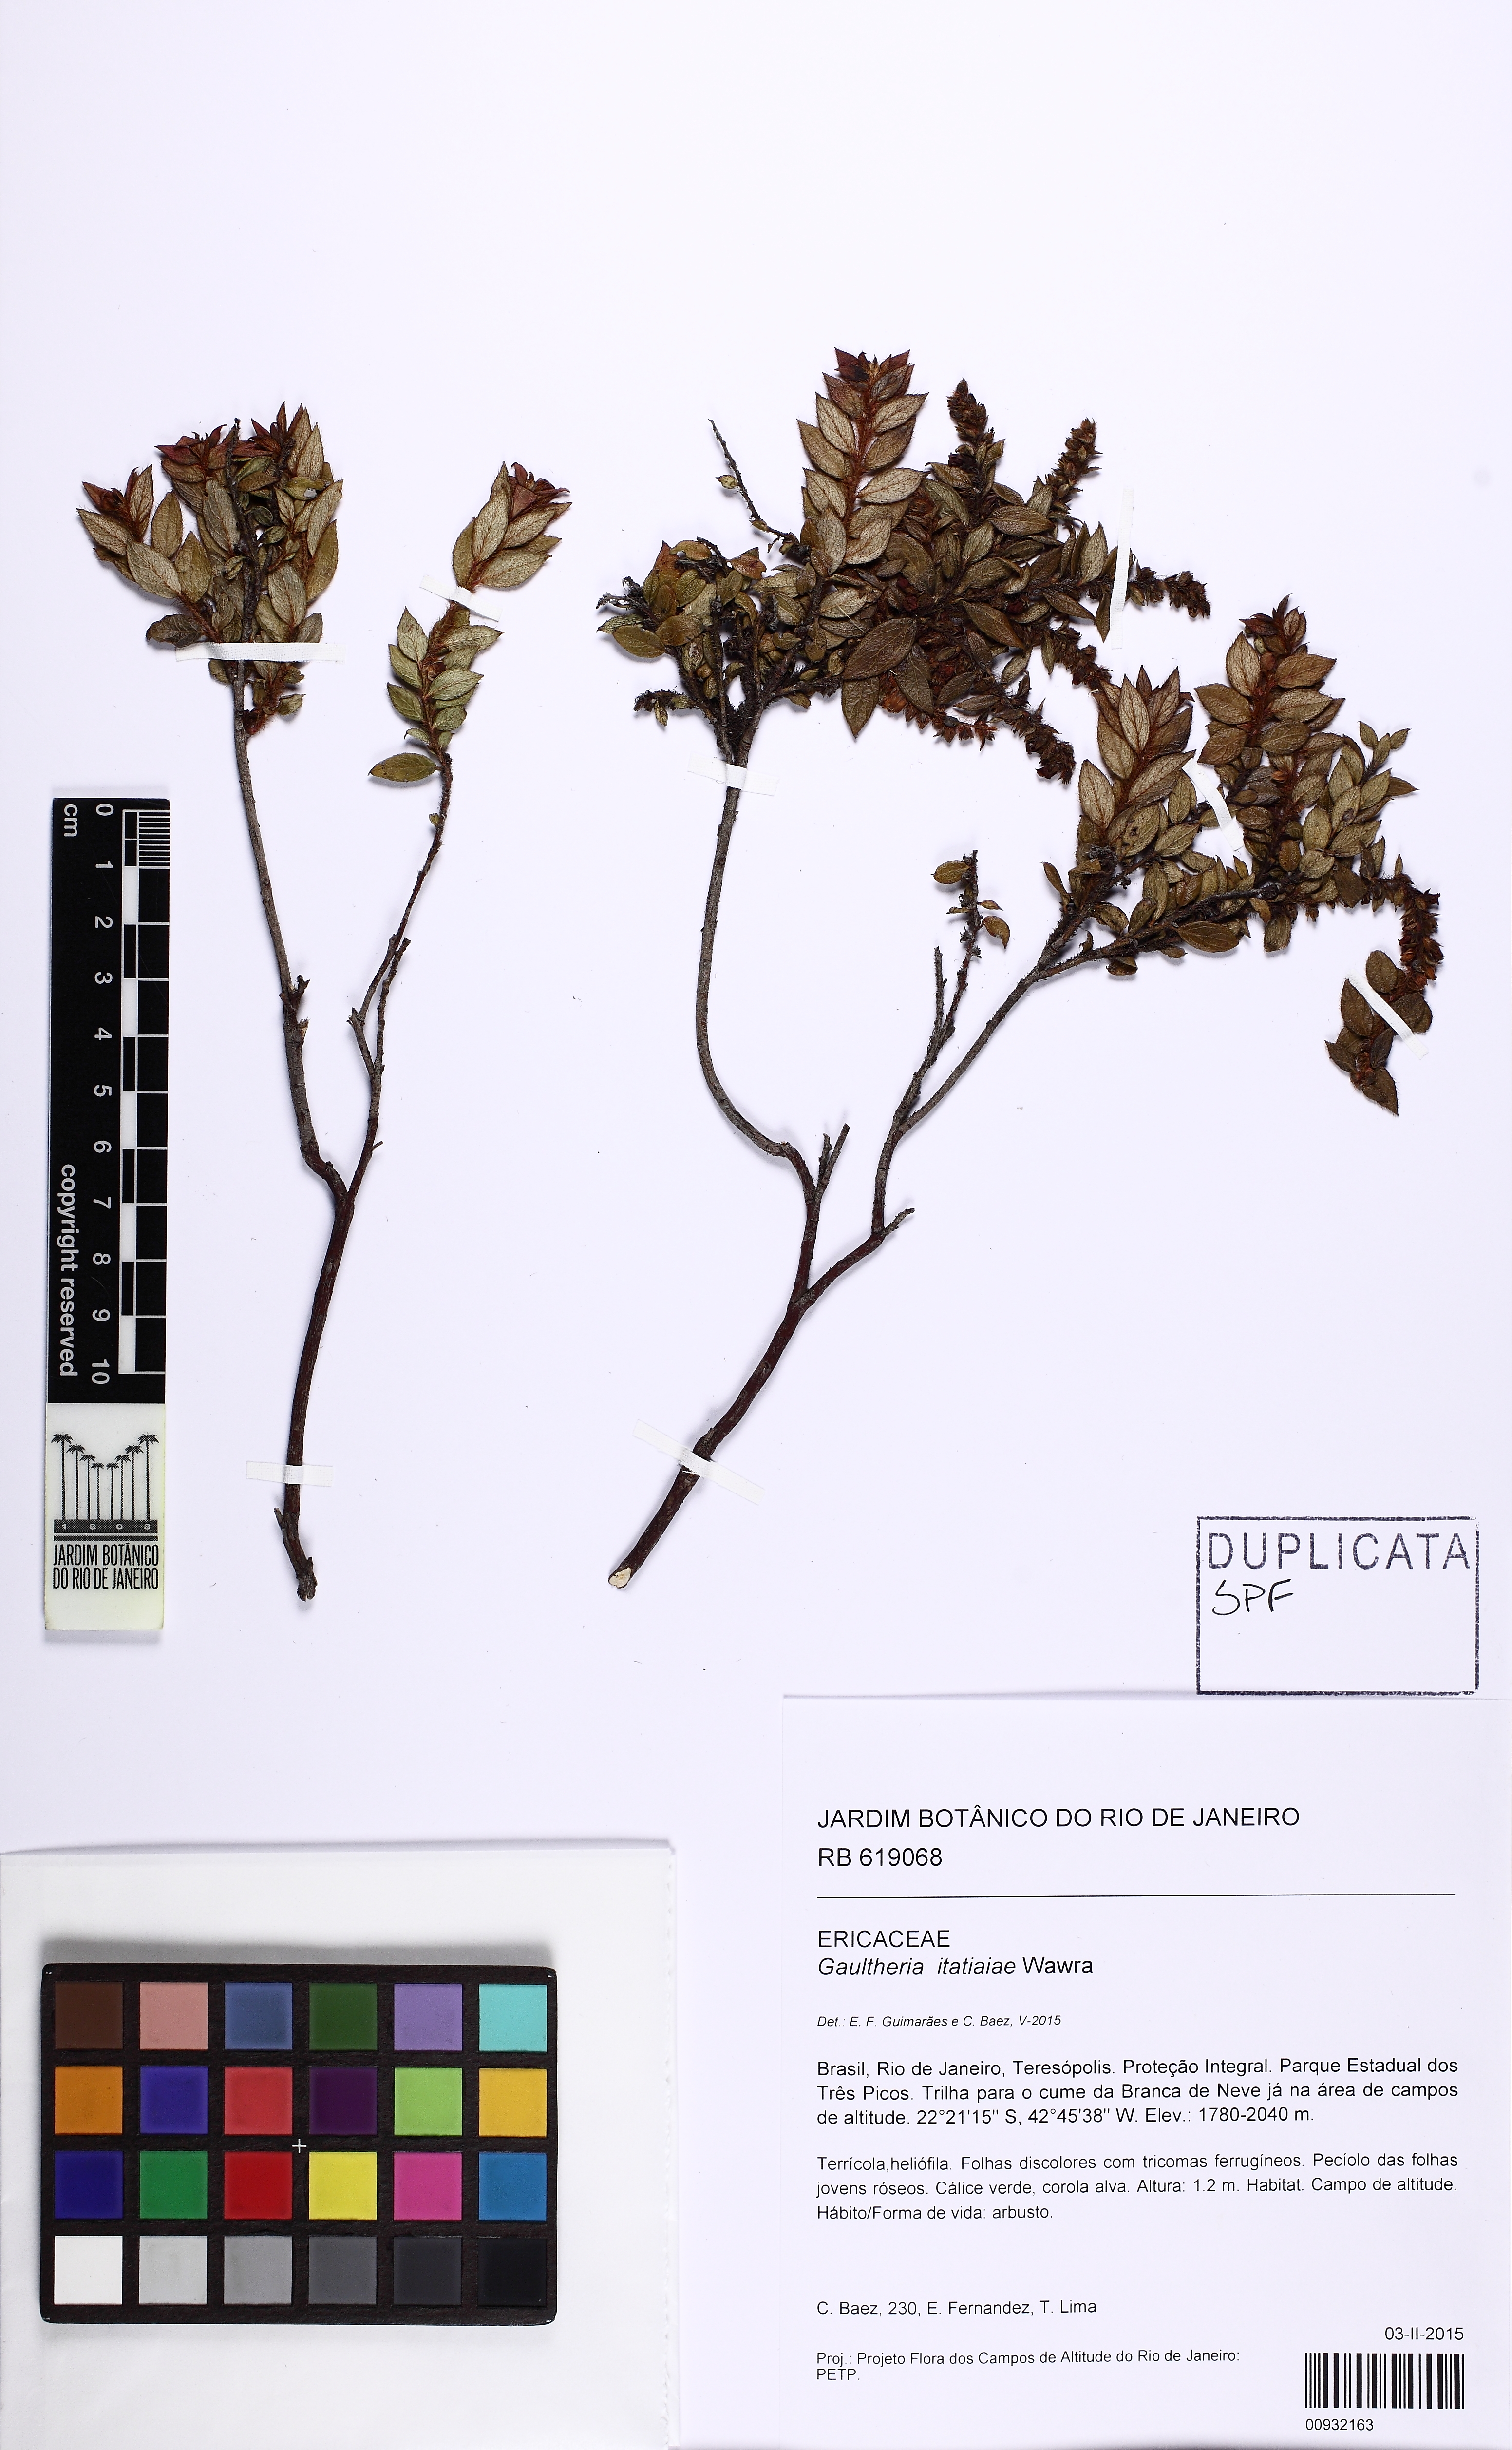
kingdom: Plantae
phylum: Tracheophyta
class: Magnoliopsida
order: Ericales
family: Ericaceae
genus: Gaultheria
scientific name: Gaultheria itatiaiae
